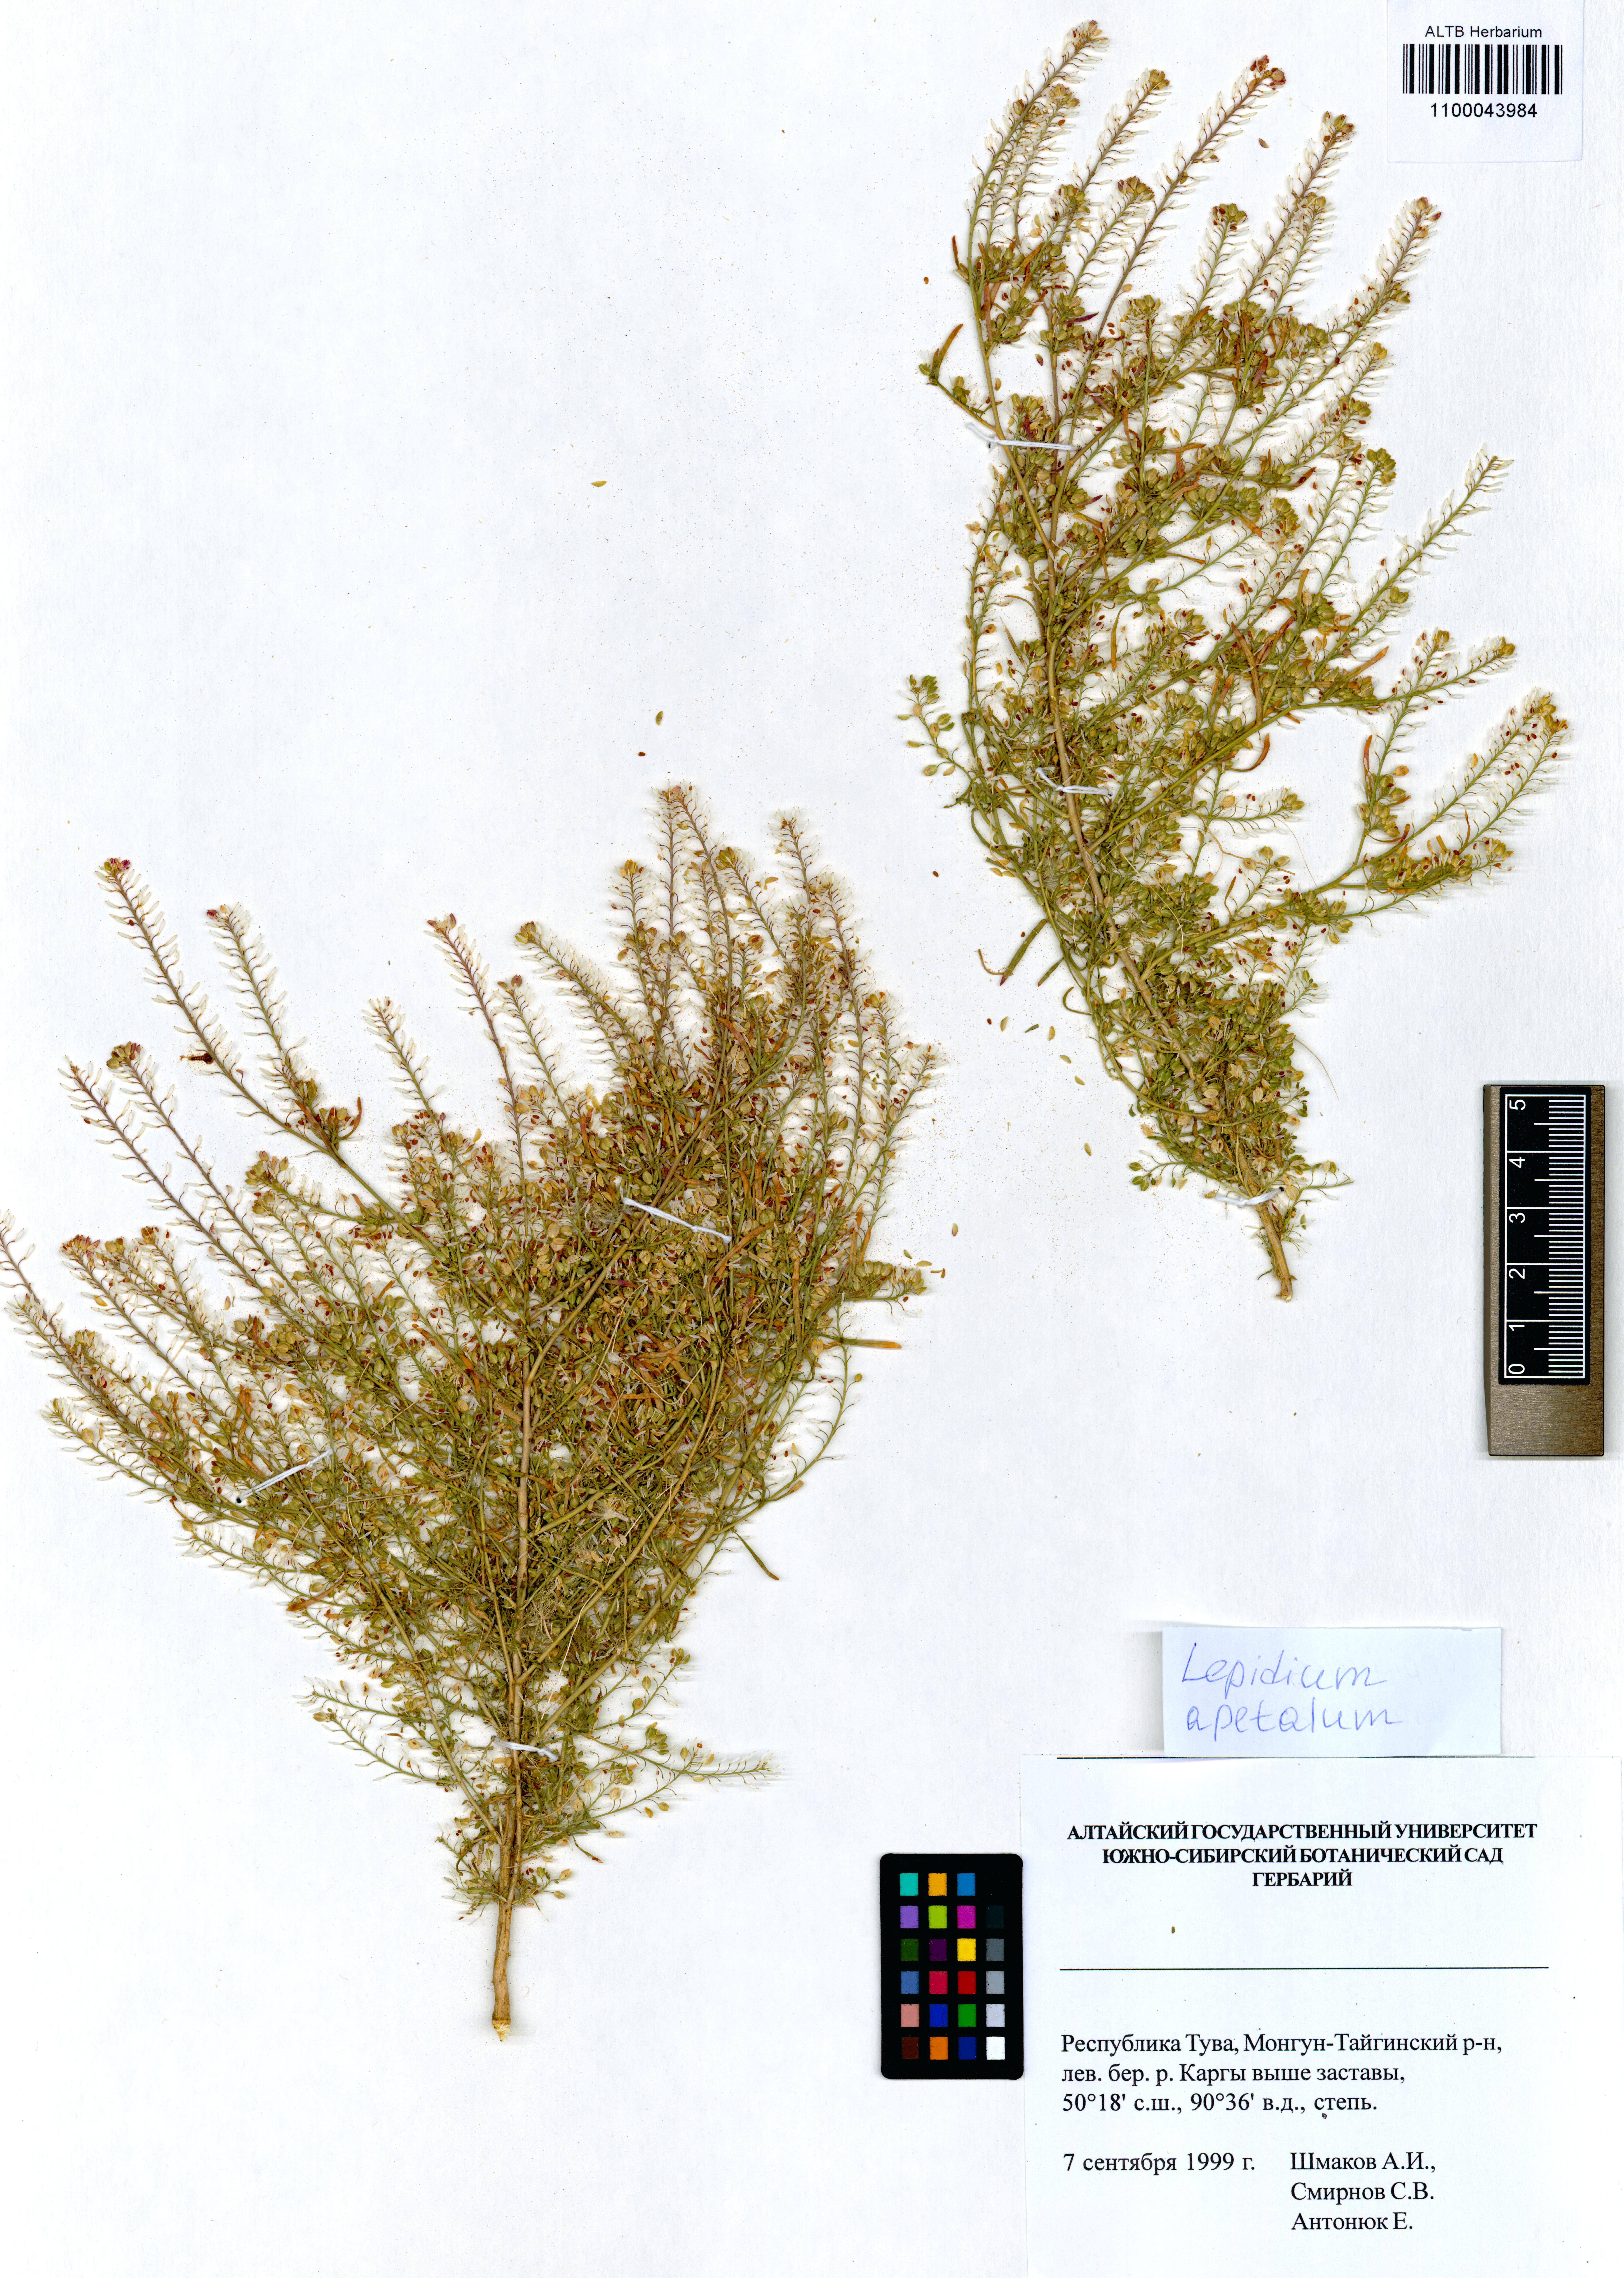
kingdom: Plantae
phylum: Tracheophyta
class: Magnoliopsida
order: Brassicales
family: Brassicaceae
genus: Lepidium
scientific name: Lepidium apetalum
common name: Pepperweed
